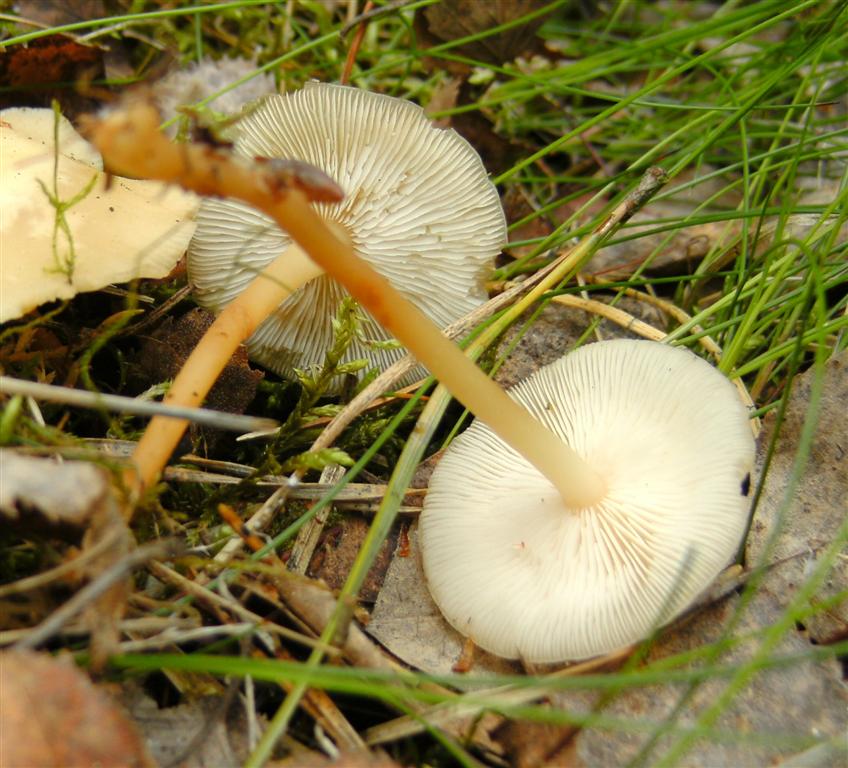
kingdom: Fungi
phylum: Basidiomycota
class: Agaricomycetes
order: Agaricales
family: Omphalotaceae
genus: Gymnopus
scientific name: Gymnopus dryophilus
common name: løv-fladhat
